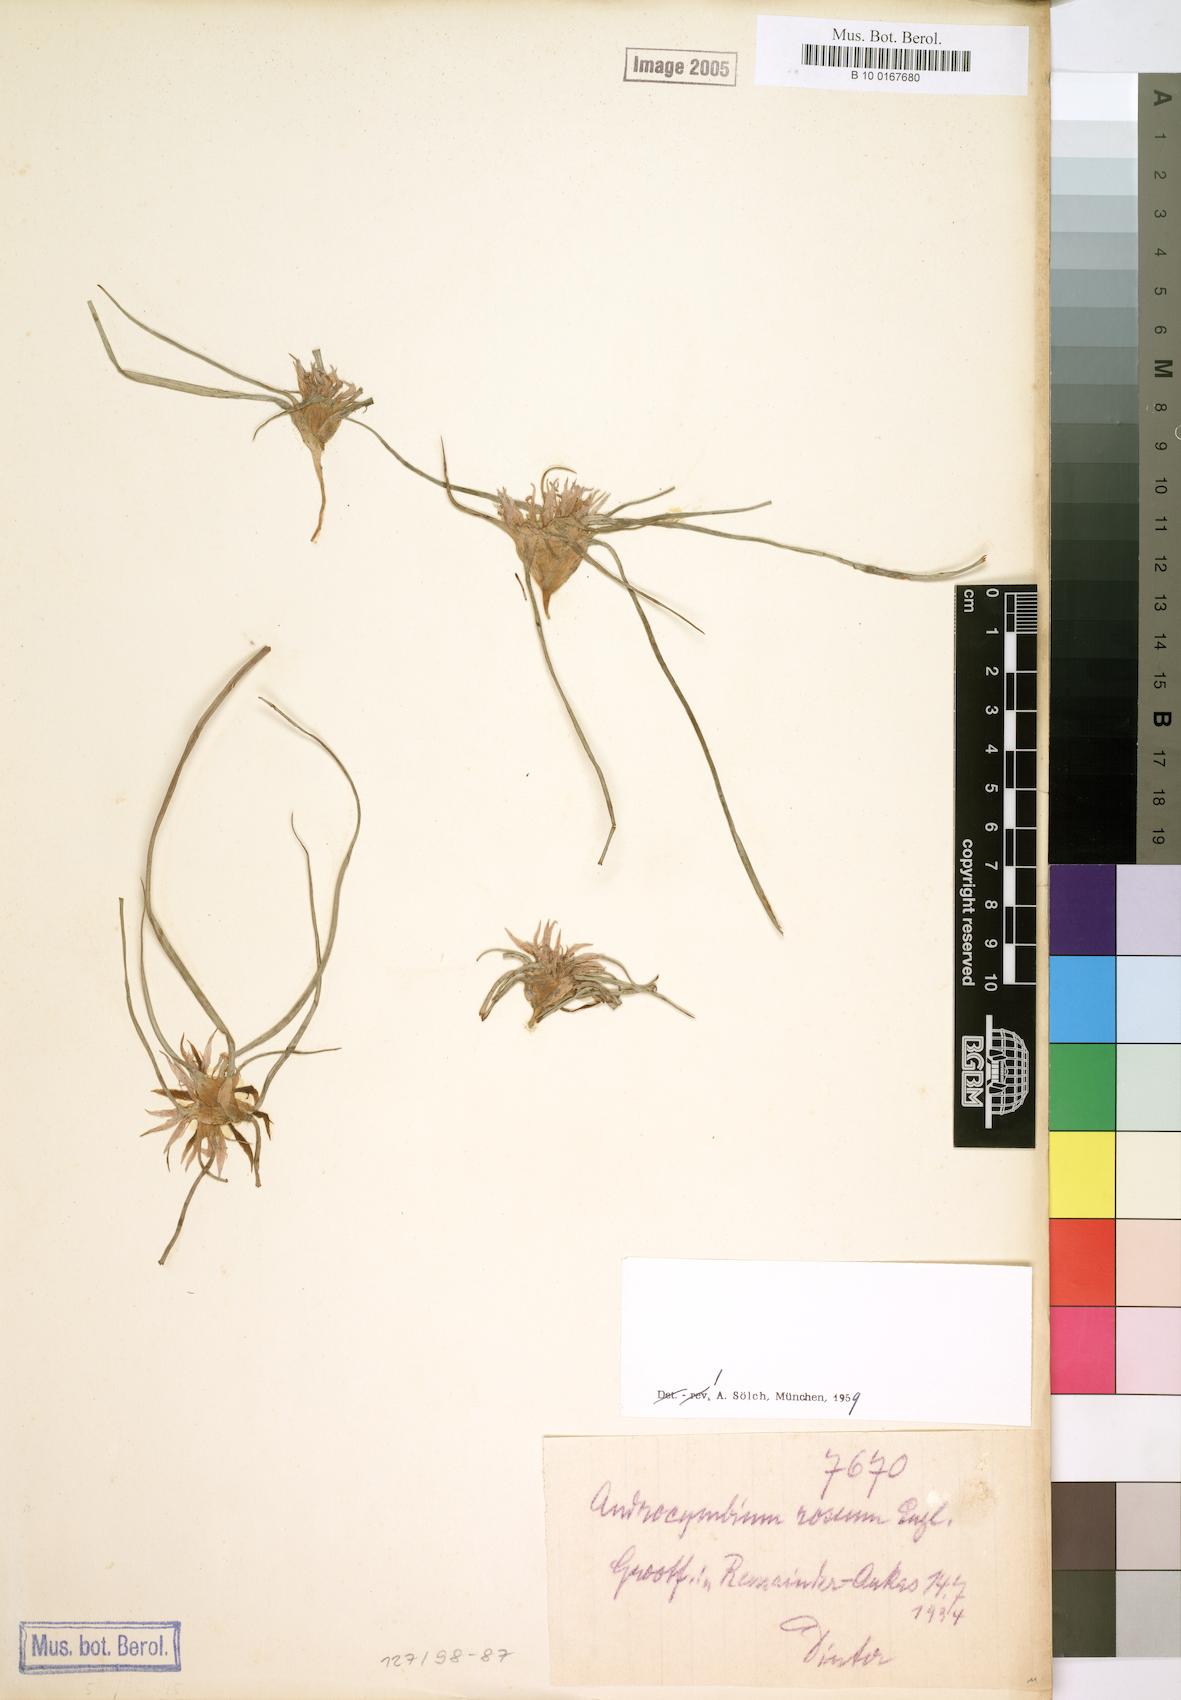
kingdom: Plantae
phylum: Tracheophyta
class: Liliopsida
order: Liliales
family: Colchicaceae
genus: Colchicum
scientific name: Colchicum roseum
